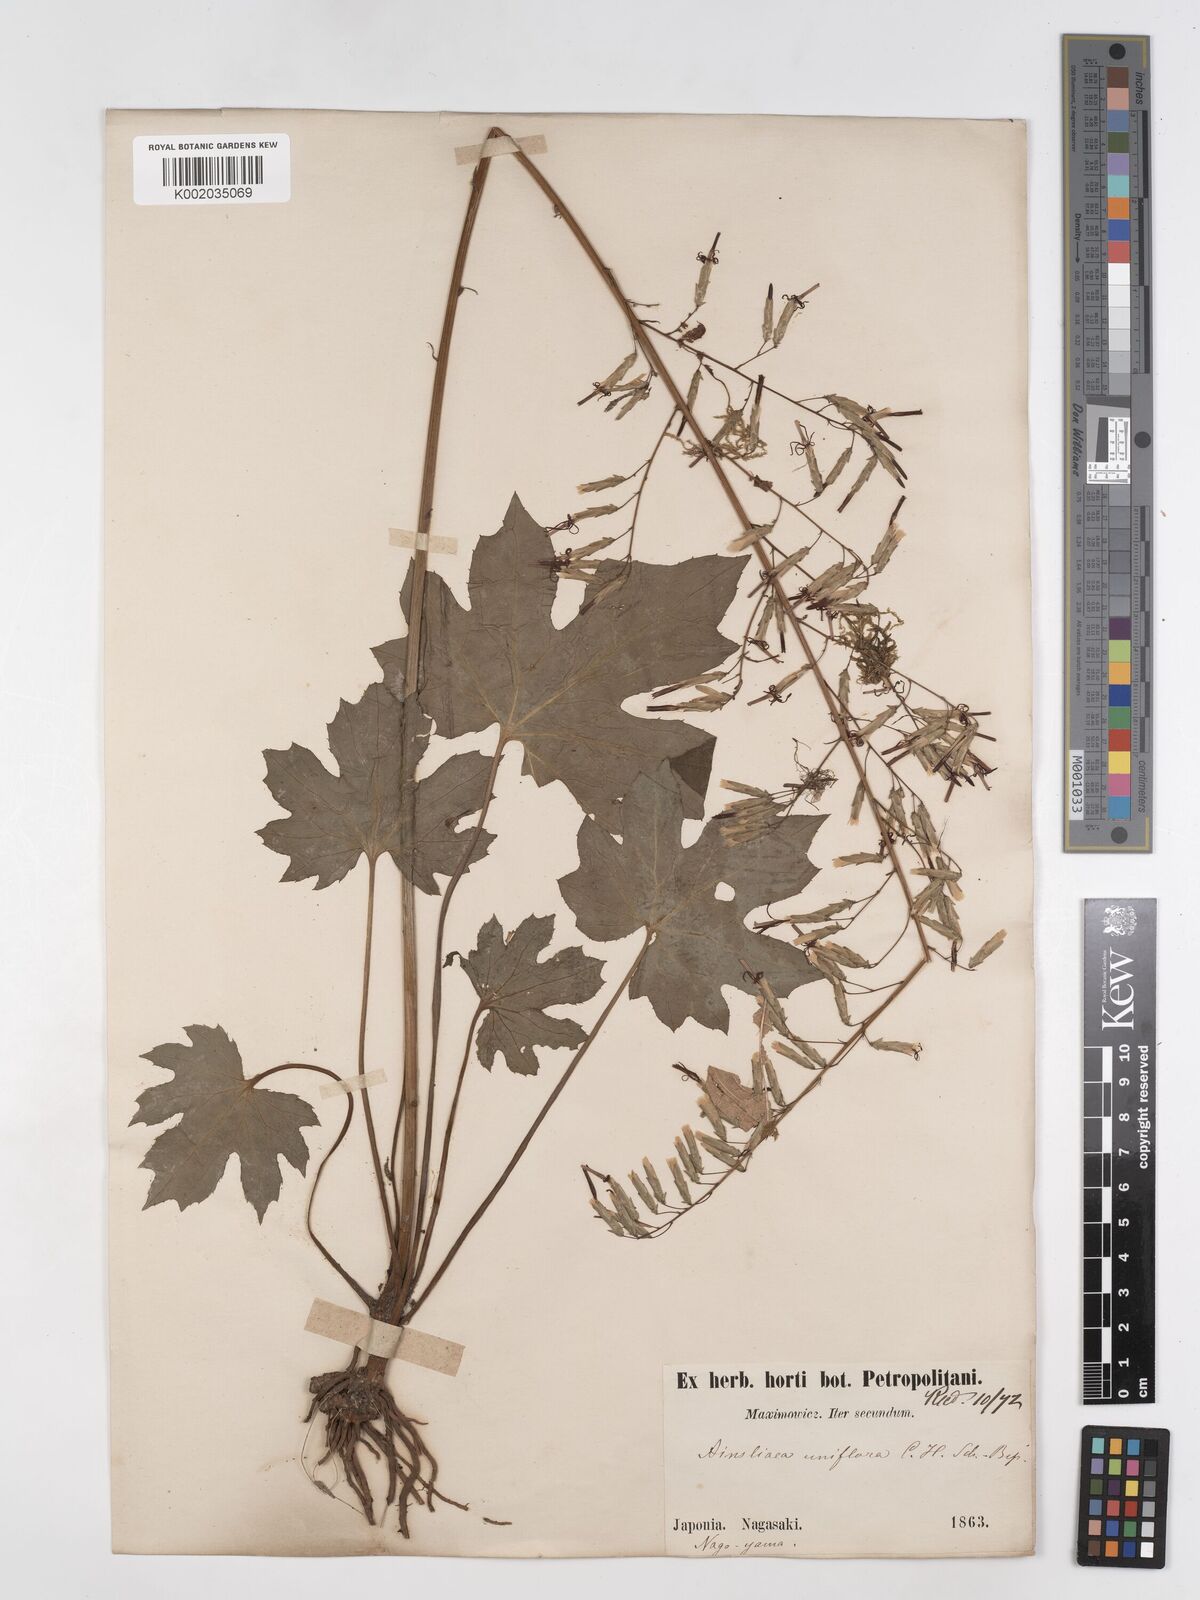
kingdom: Plantae
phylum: Tracheophyta
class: Magnoliopsida
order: Asterales
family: Asteraceae
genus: Ainsliaea
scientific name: Ainsliaea uniflora
